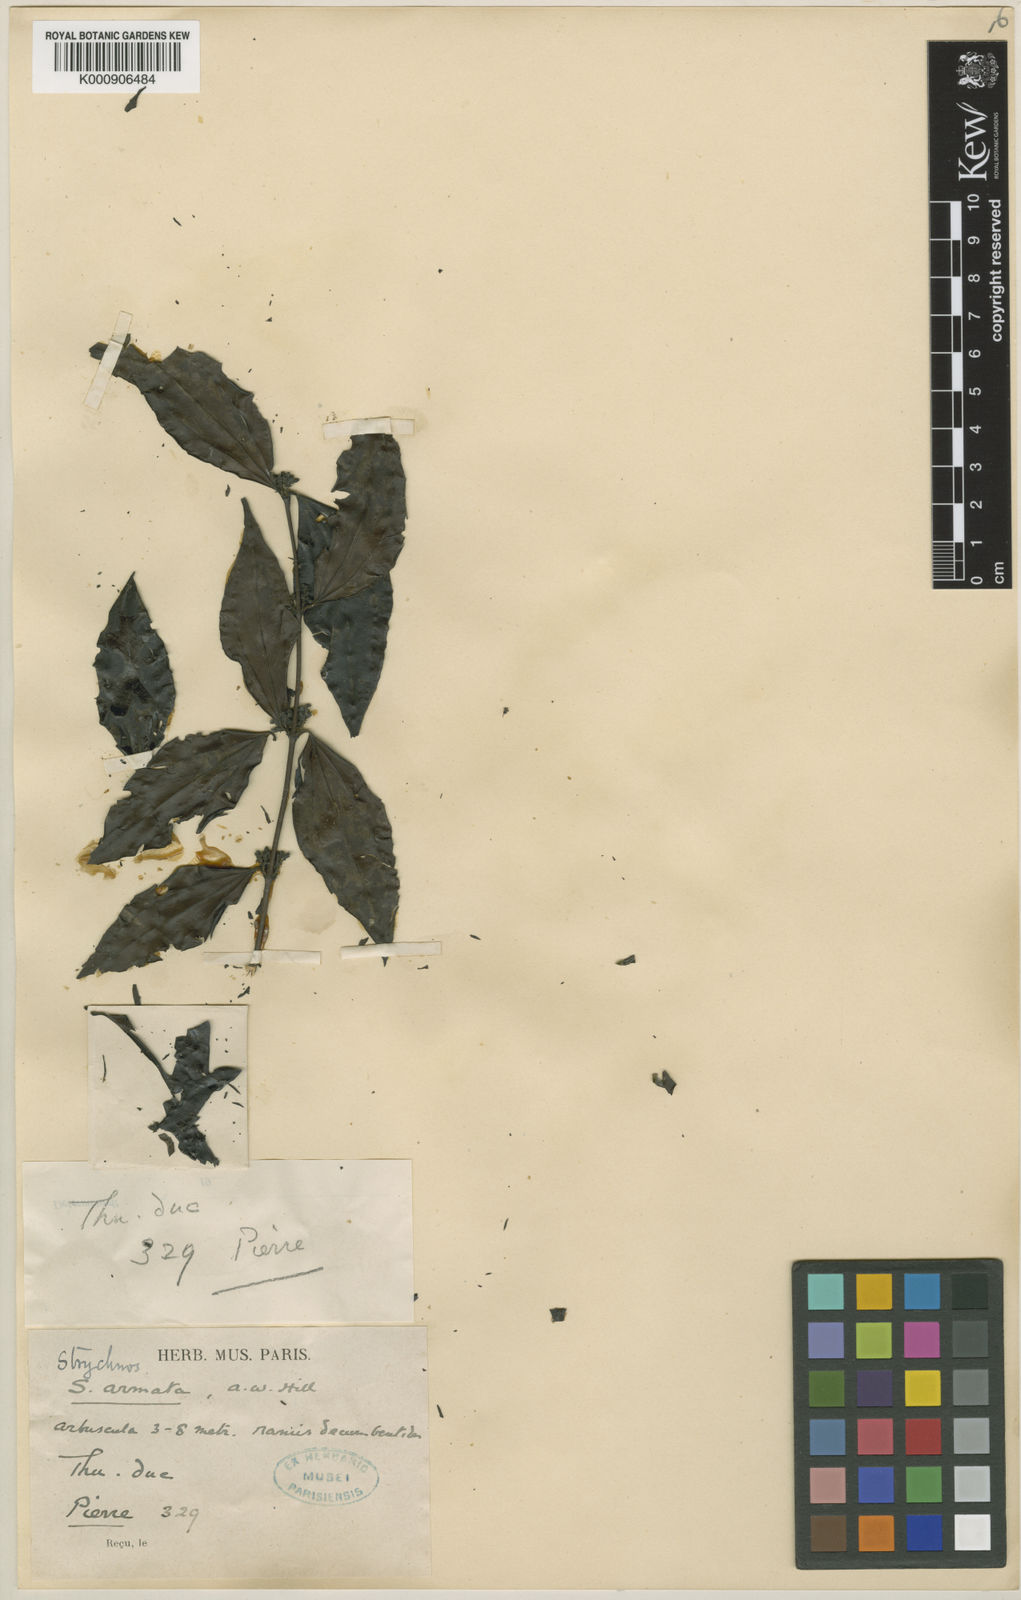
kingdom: Plantae
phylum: Tracheophyta
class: Magnoliopsida
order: Gentianales
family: Loganiaceae
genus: Strychnos
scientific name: Strychnos axillaris
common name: Strychninebush
